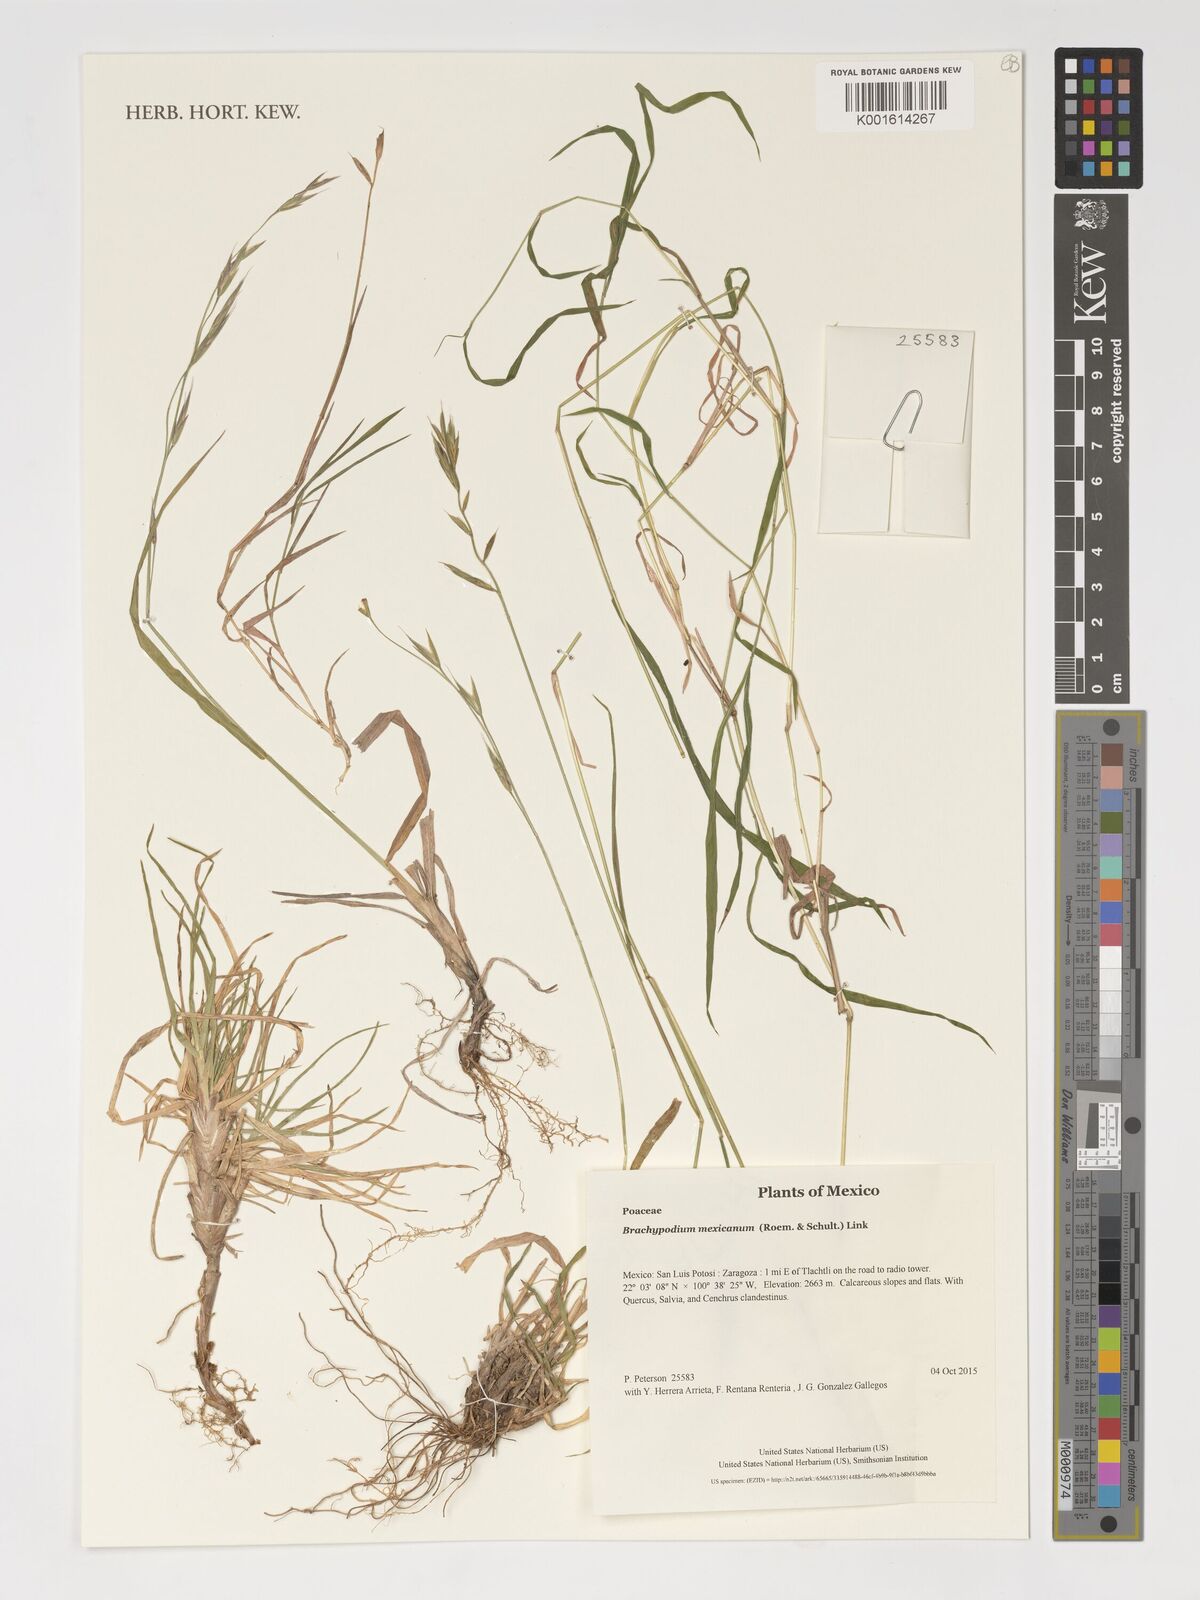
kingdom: Plantae
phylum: Tracheophyta
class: Liliopsida
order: Poales
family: Poaceae
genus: Brachypodium
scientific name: Brachypodium mexicanum
